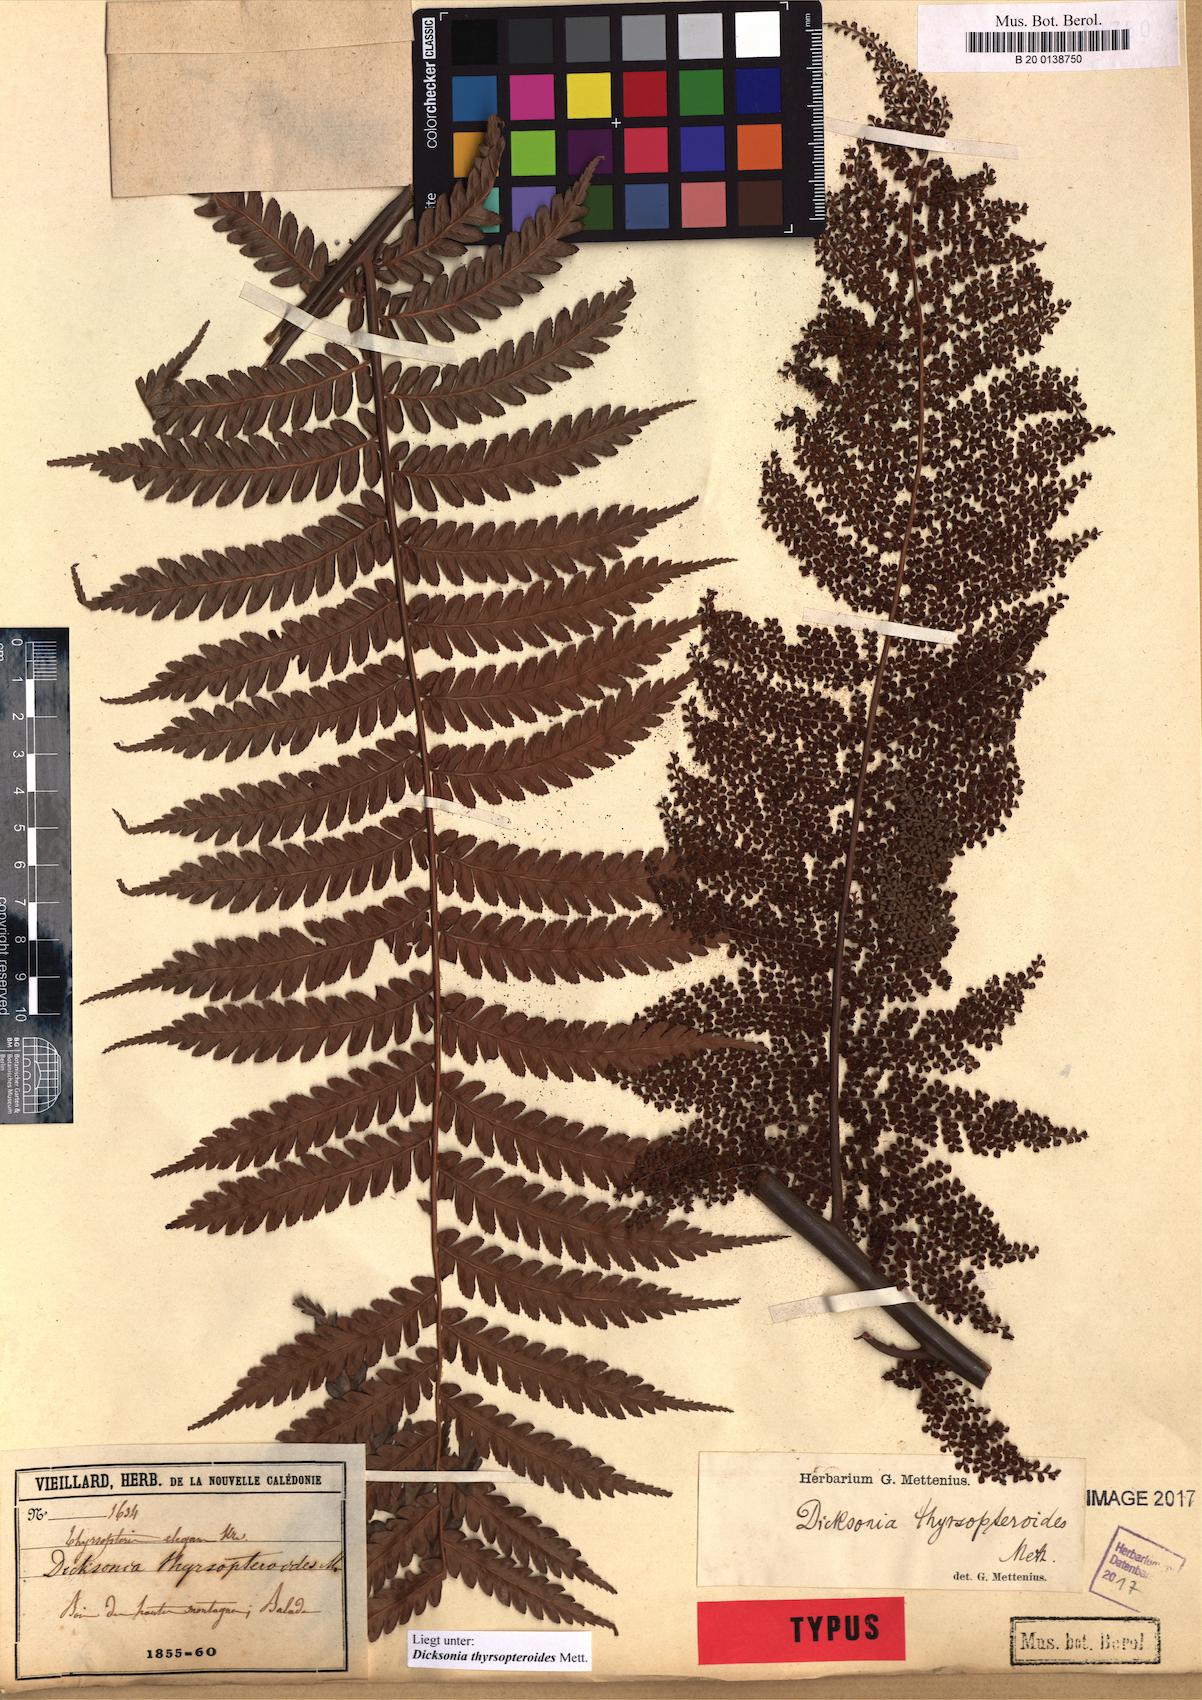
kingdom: Plantae
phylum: Tracheophyta
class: Polypodiopsida
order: Cyatheales
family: Dicksoniaceae
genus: Dicksonia
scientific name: Dicksonia thyrsopteroides
